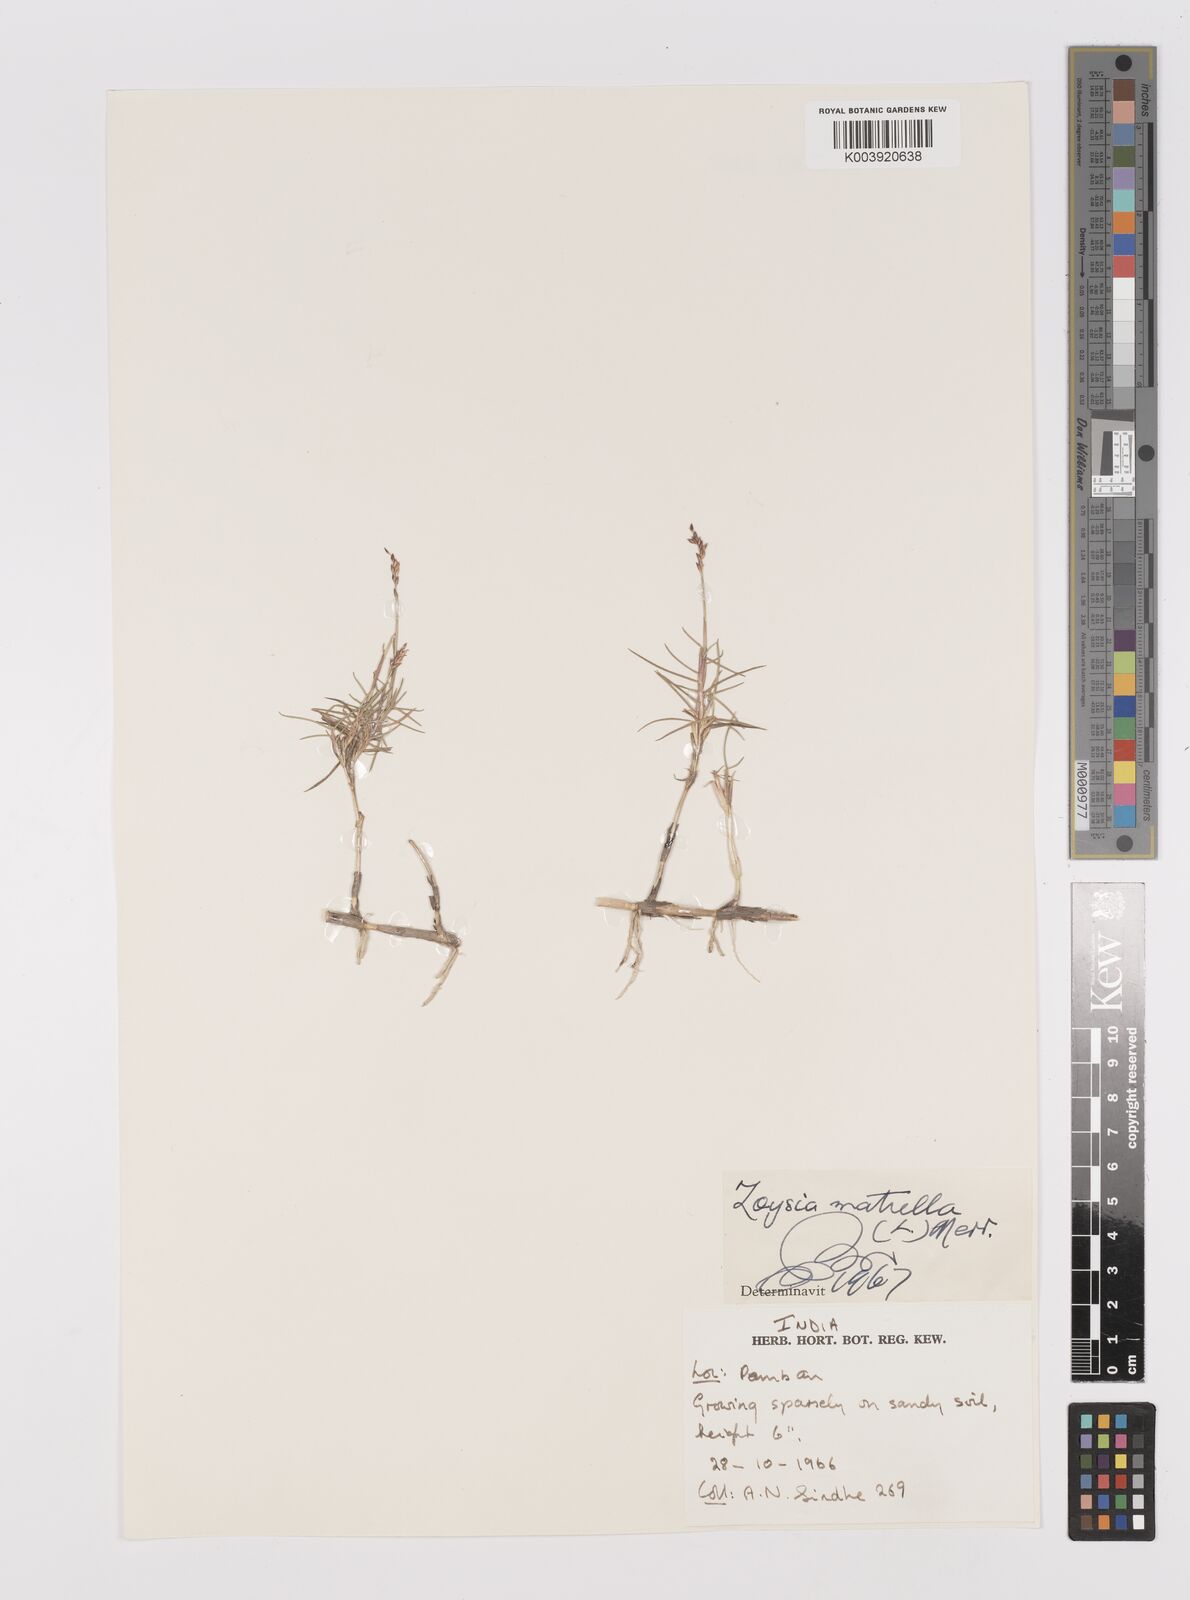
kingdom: Plantae
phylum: Tracheophyta
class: Liliopsida
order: Poales
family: Poaceae
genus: Zoysia
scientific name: Zoysia matrella
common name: Manila grass
